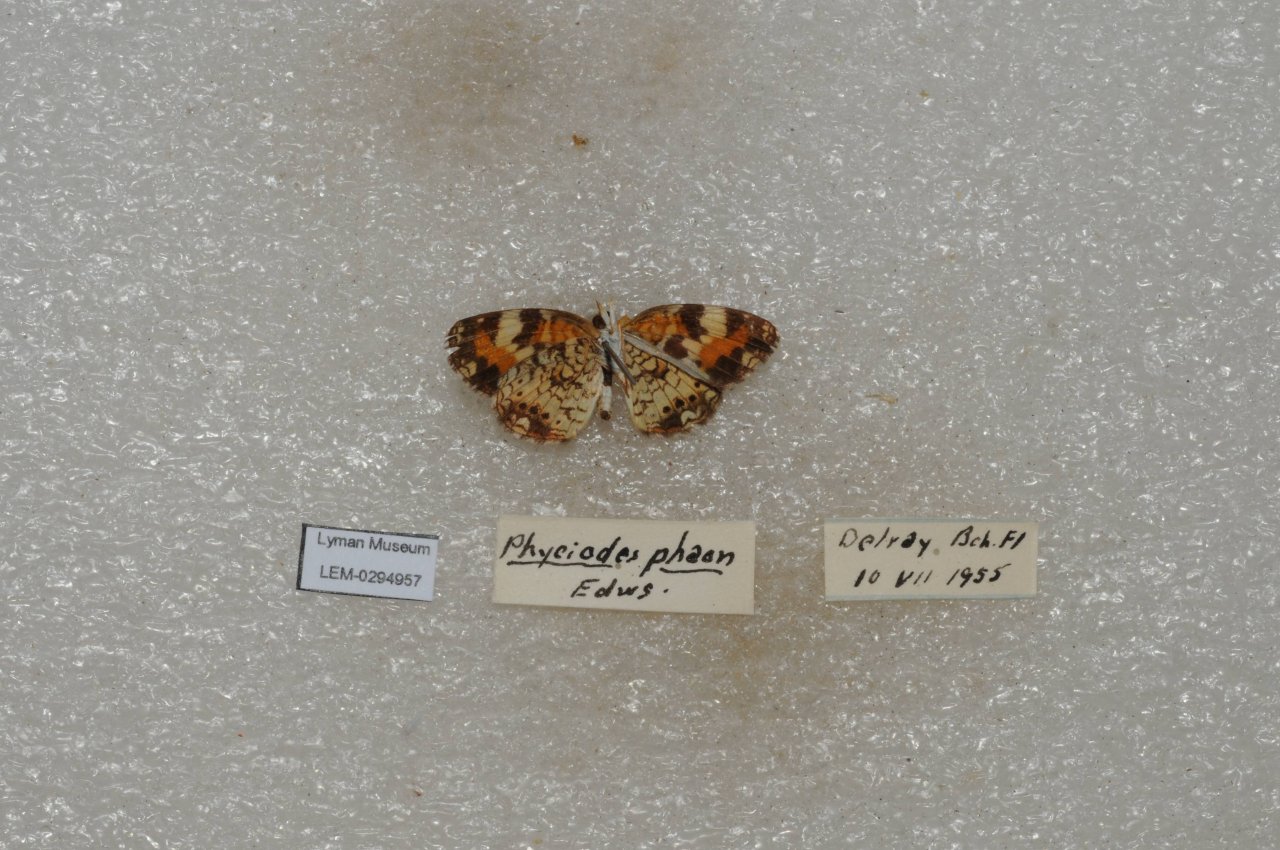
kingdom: Animalia
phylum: Arthropoda
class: Insecta
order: Lepidoptera
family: Nymphalidae
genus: Phyciodes
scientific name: Phyciodes phaon
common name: Phaon Crescent
